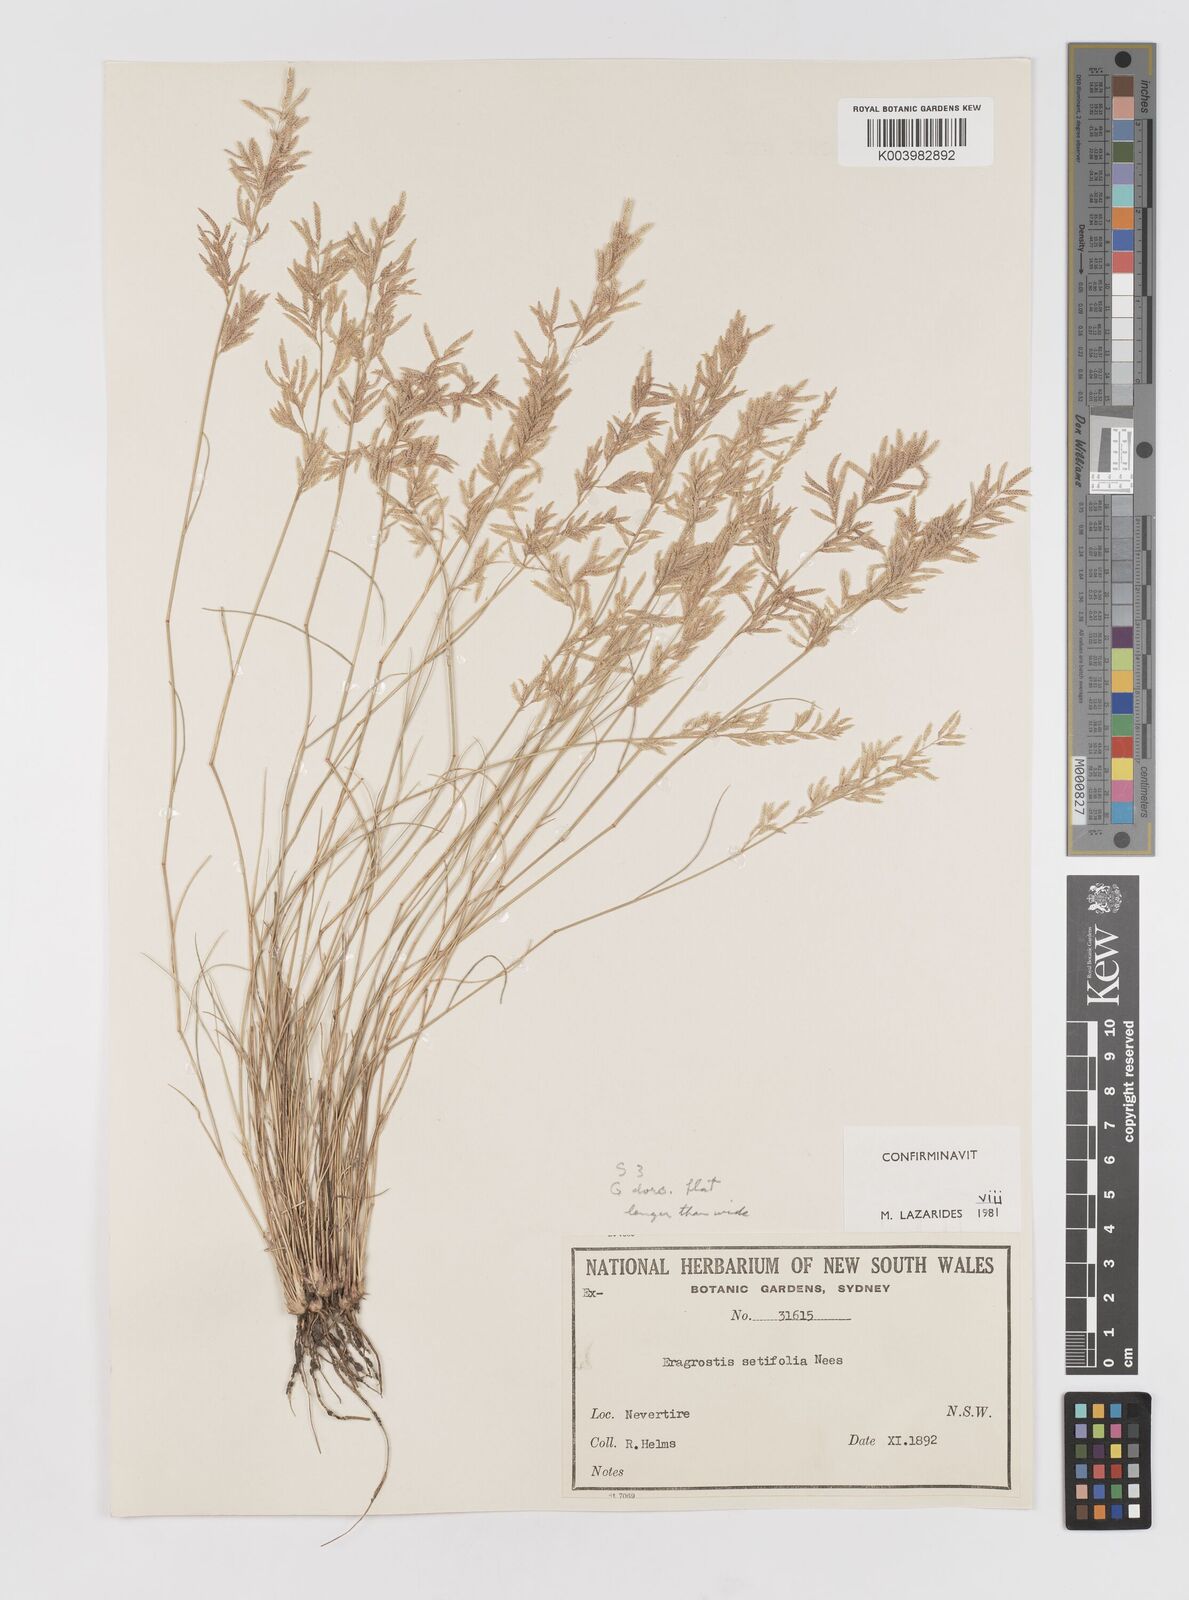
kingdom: Plantae
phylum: Tracheophyta
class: Liliopsida
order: Poales
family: Poaceae
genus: Eragrostis
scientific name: Eragrostis setifolia
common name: Bristleleaf lovegrass
